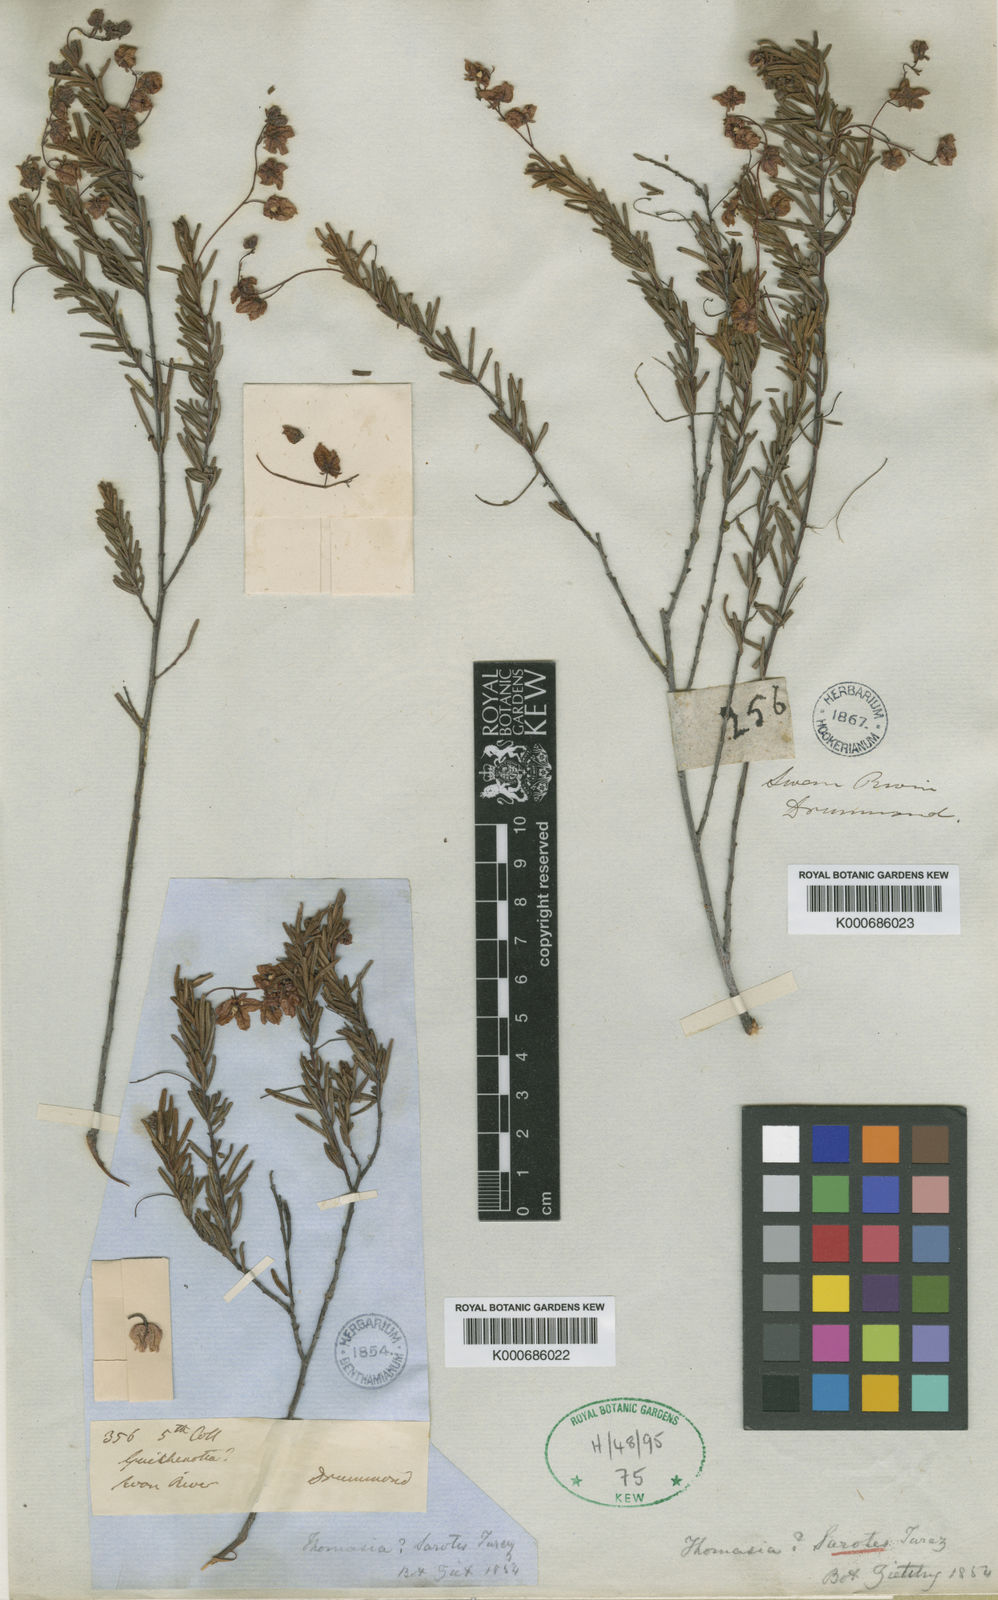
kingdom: Plantae
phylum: Tracheophyta
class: Magnoliopsida
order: Malvales
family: Malvaceae
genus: Thomasia
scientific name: Thomasia sarotes
